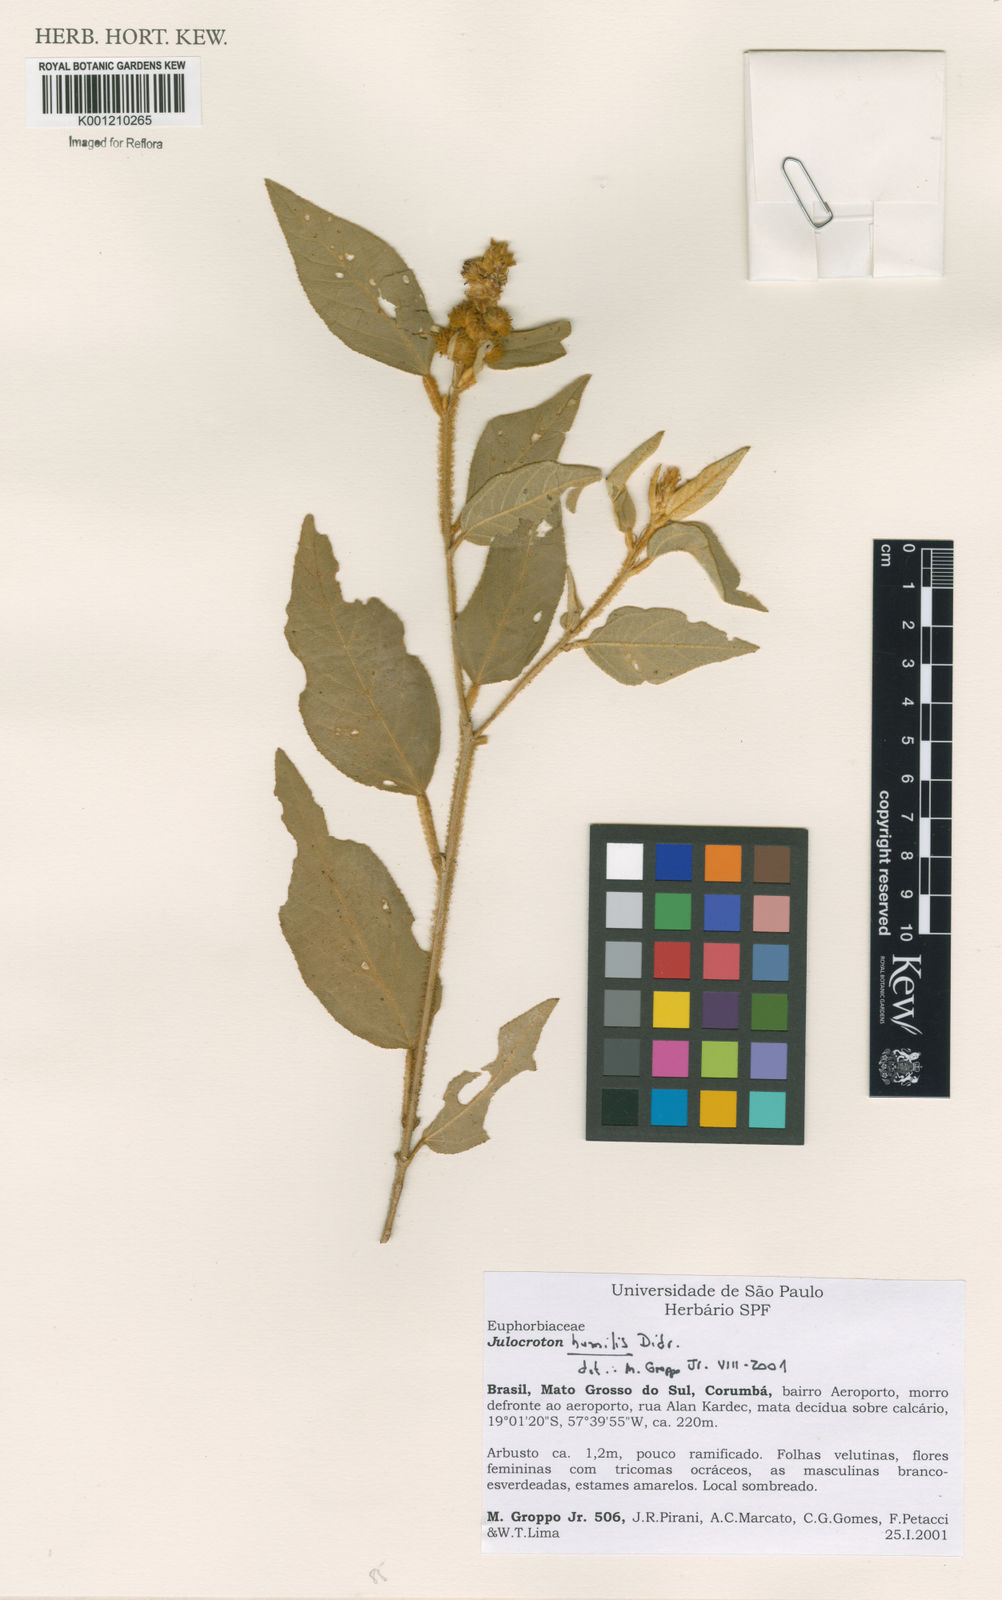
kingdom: Plantae
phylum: Tracheophyta
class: Magnoliopsida
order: Malpighiales
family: Euphorbiaceae
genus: Croton
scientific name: Croton solanaceus
